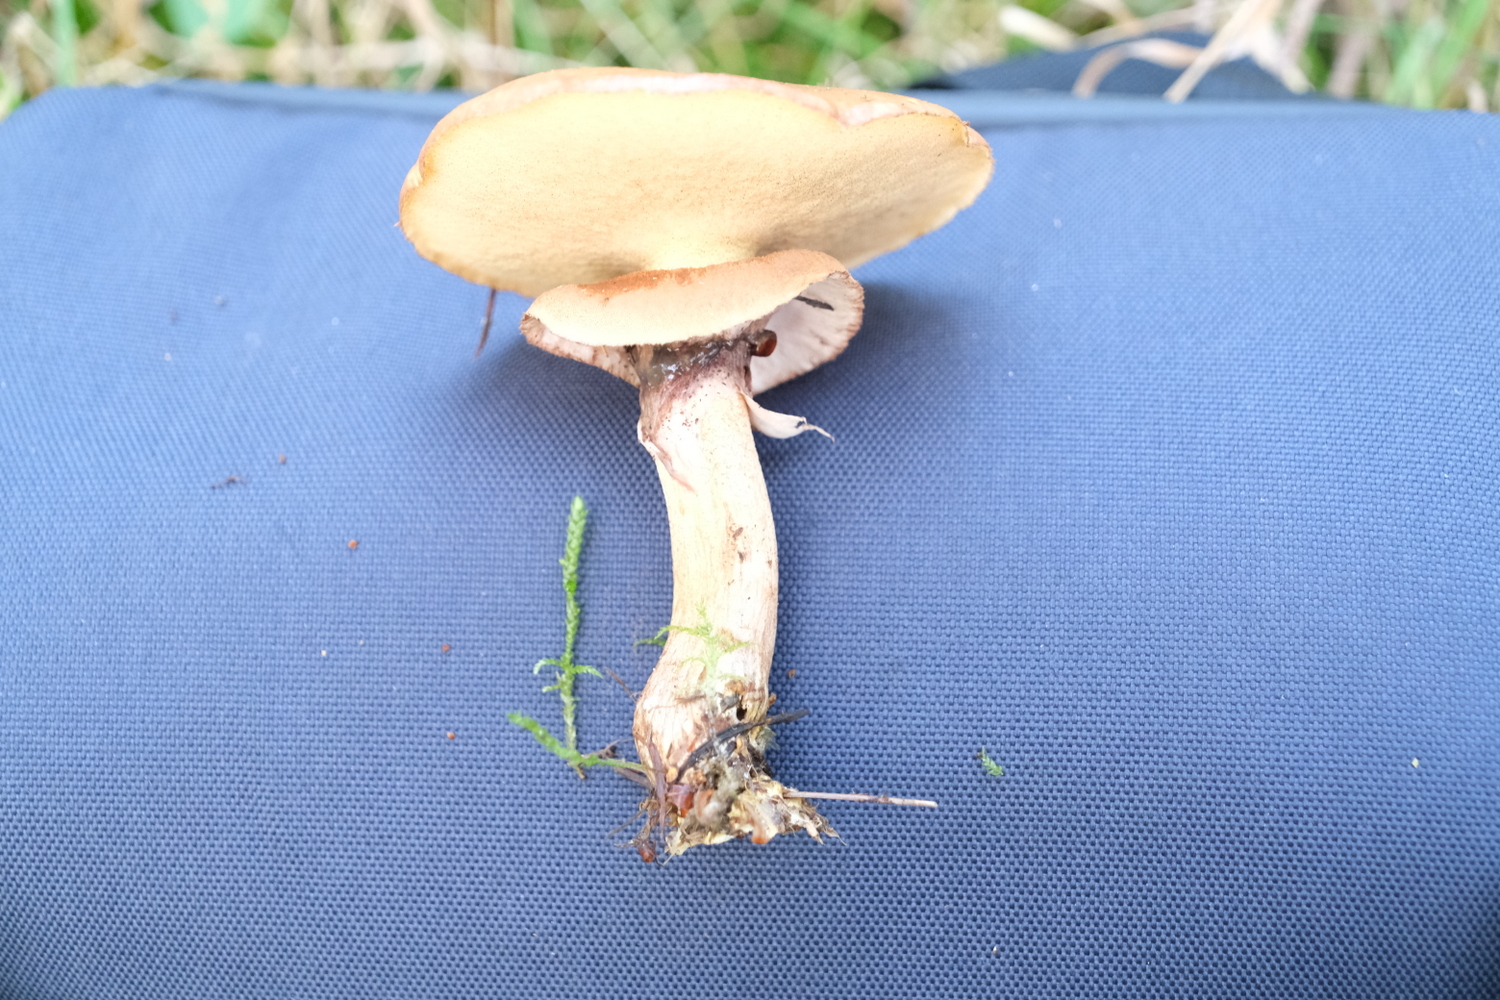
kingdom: Fungi
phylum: Basidiomycota
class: Agaricomycetes
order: Boletales
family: Suillaceae
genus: Suillus
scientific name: Suillus luteus
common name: brungul slimrørhat
